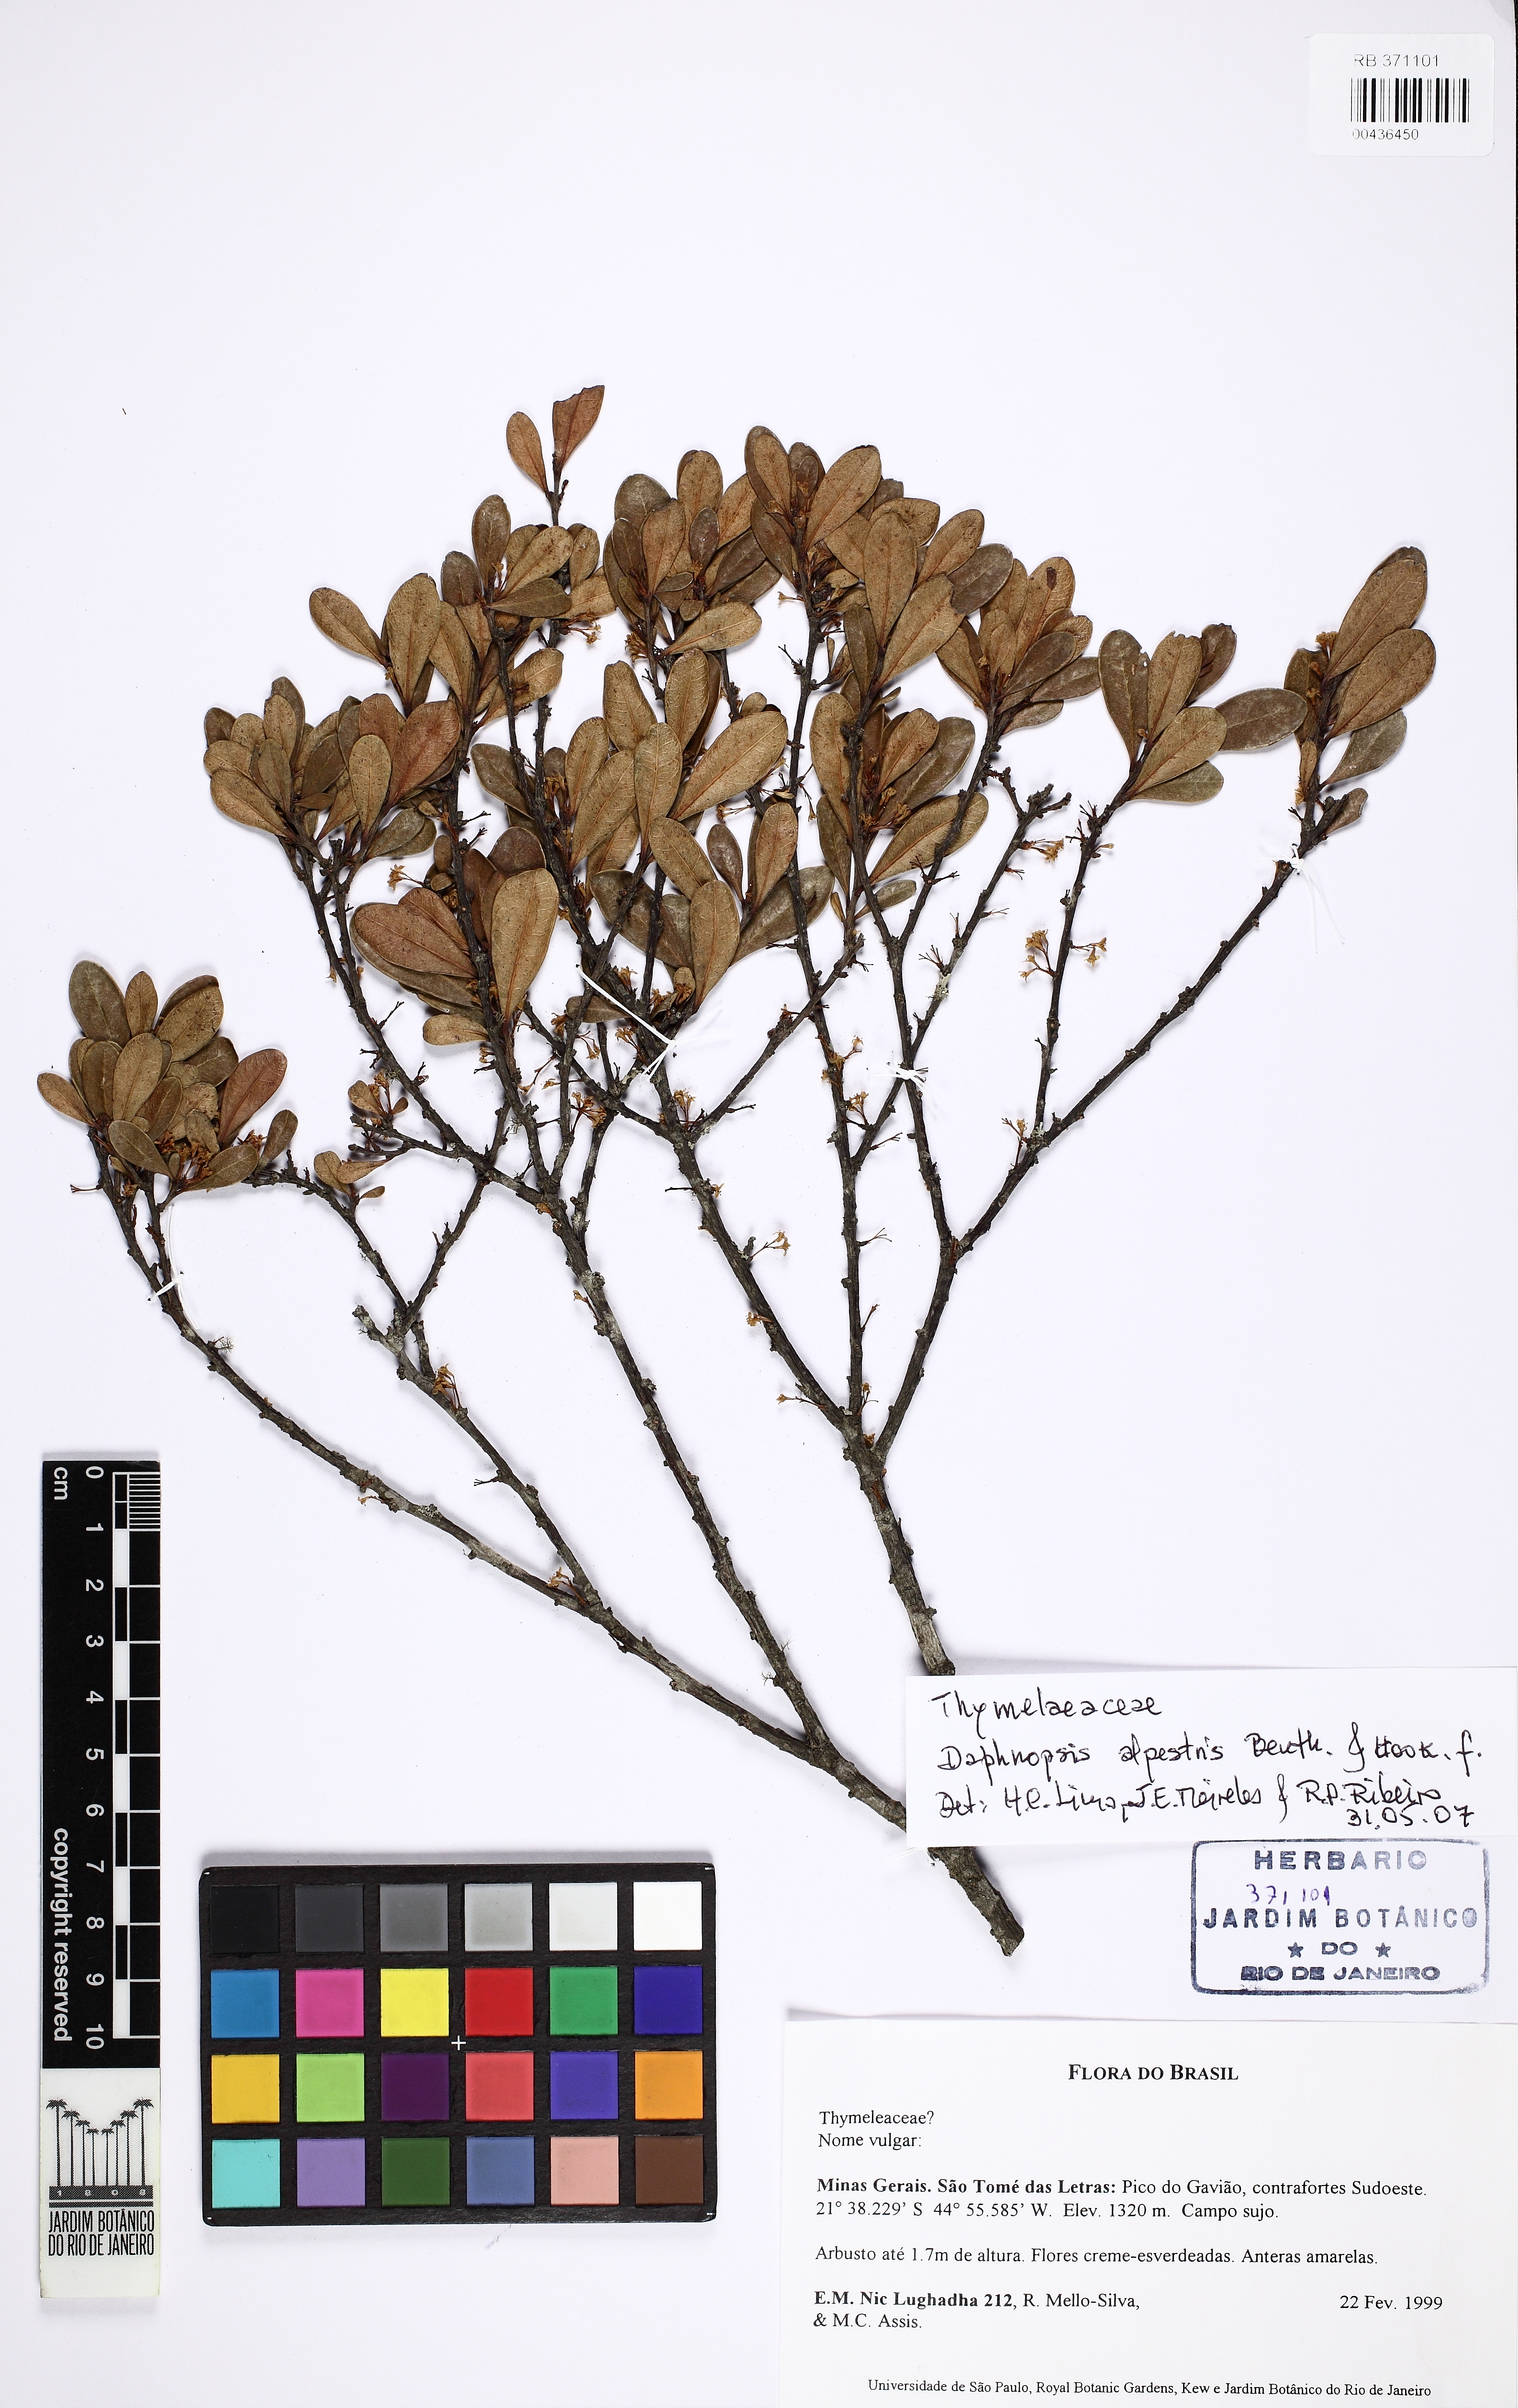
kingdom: Plantae
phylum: Tracheophyta
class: Magnoliopsida
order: Malvales
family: Thymelaeaceae
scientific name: Thymelaeaceae
